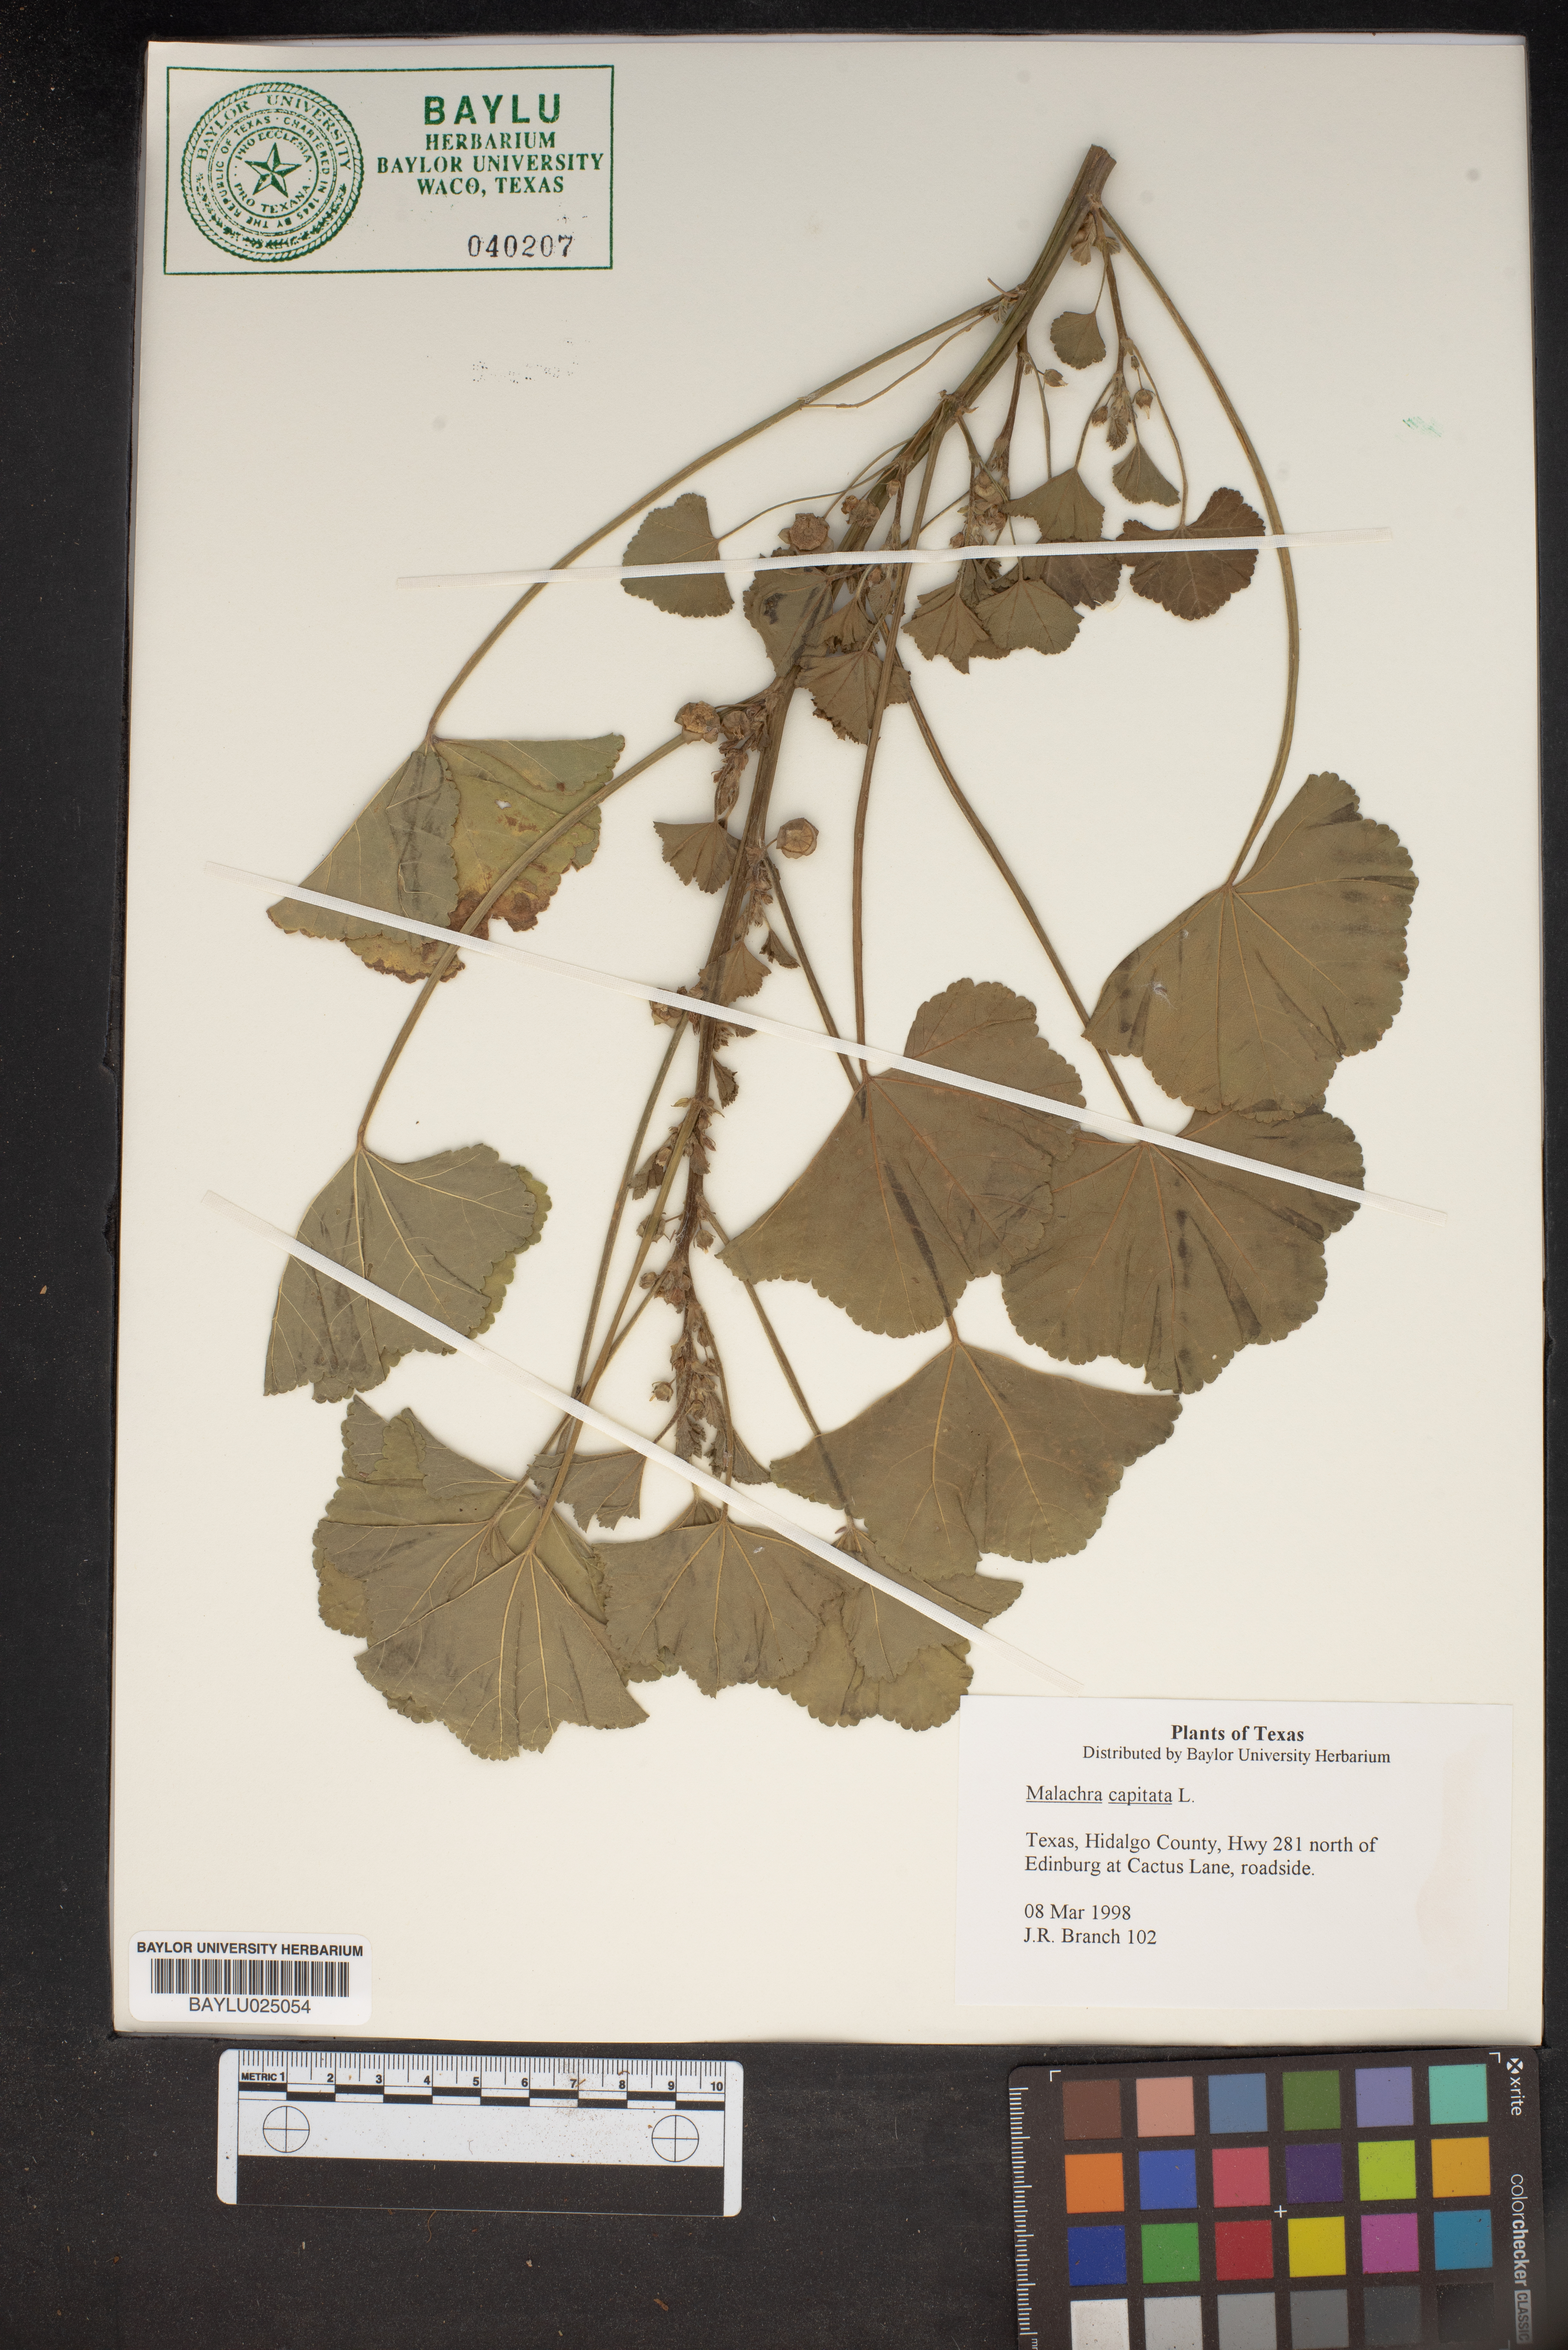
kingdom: Plantae
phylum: Tracheophyta
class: Magnoliopsida
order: Malvales
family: Malvaceae
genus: Malachra
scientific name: Malachra capitata
